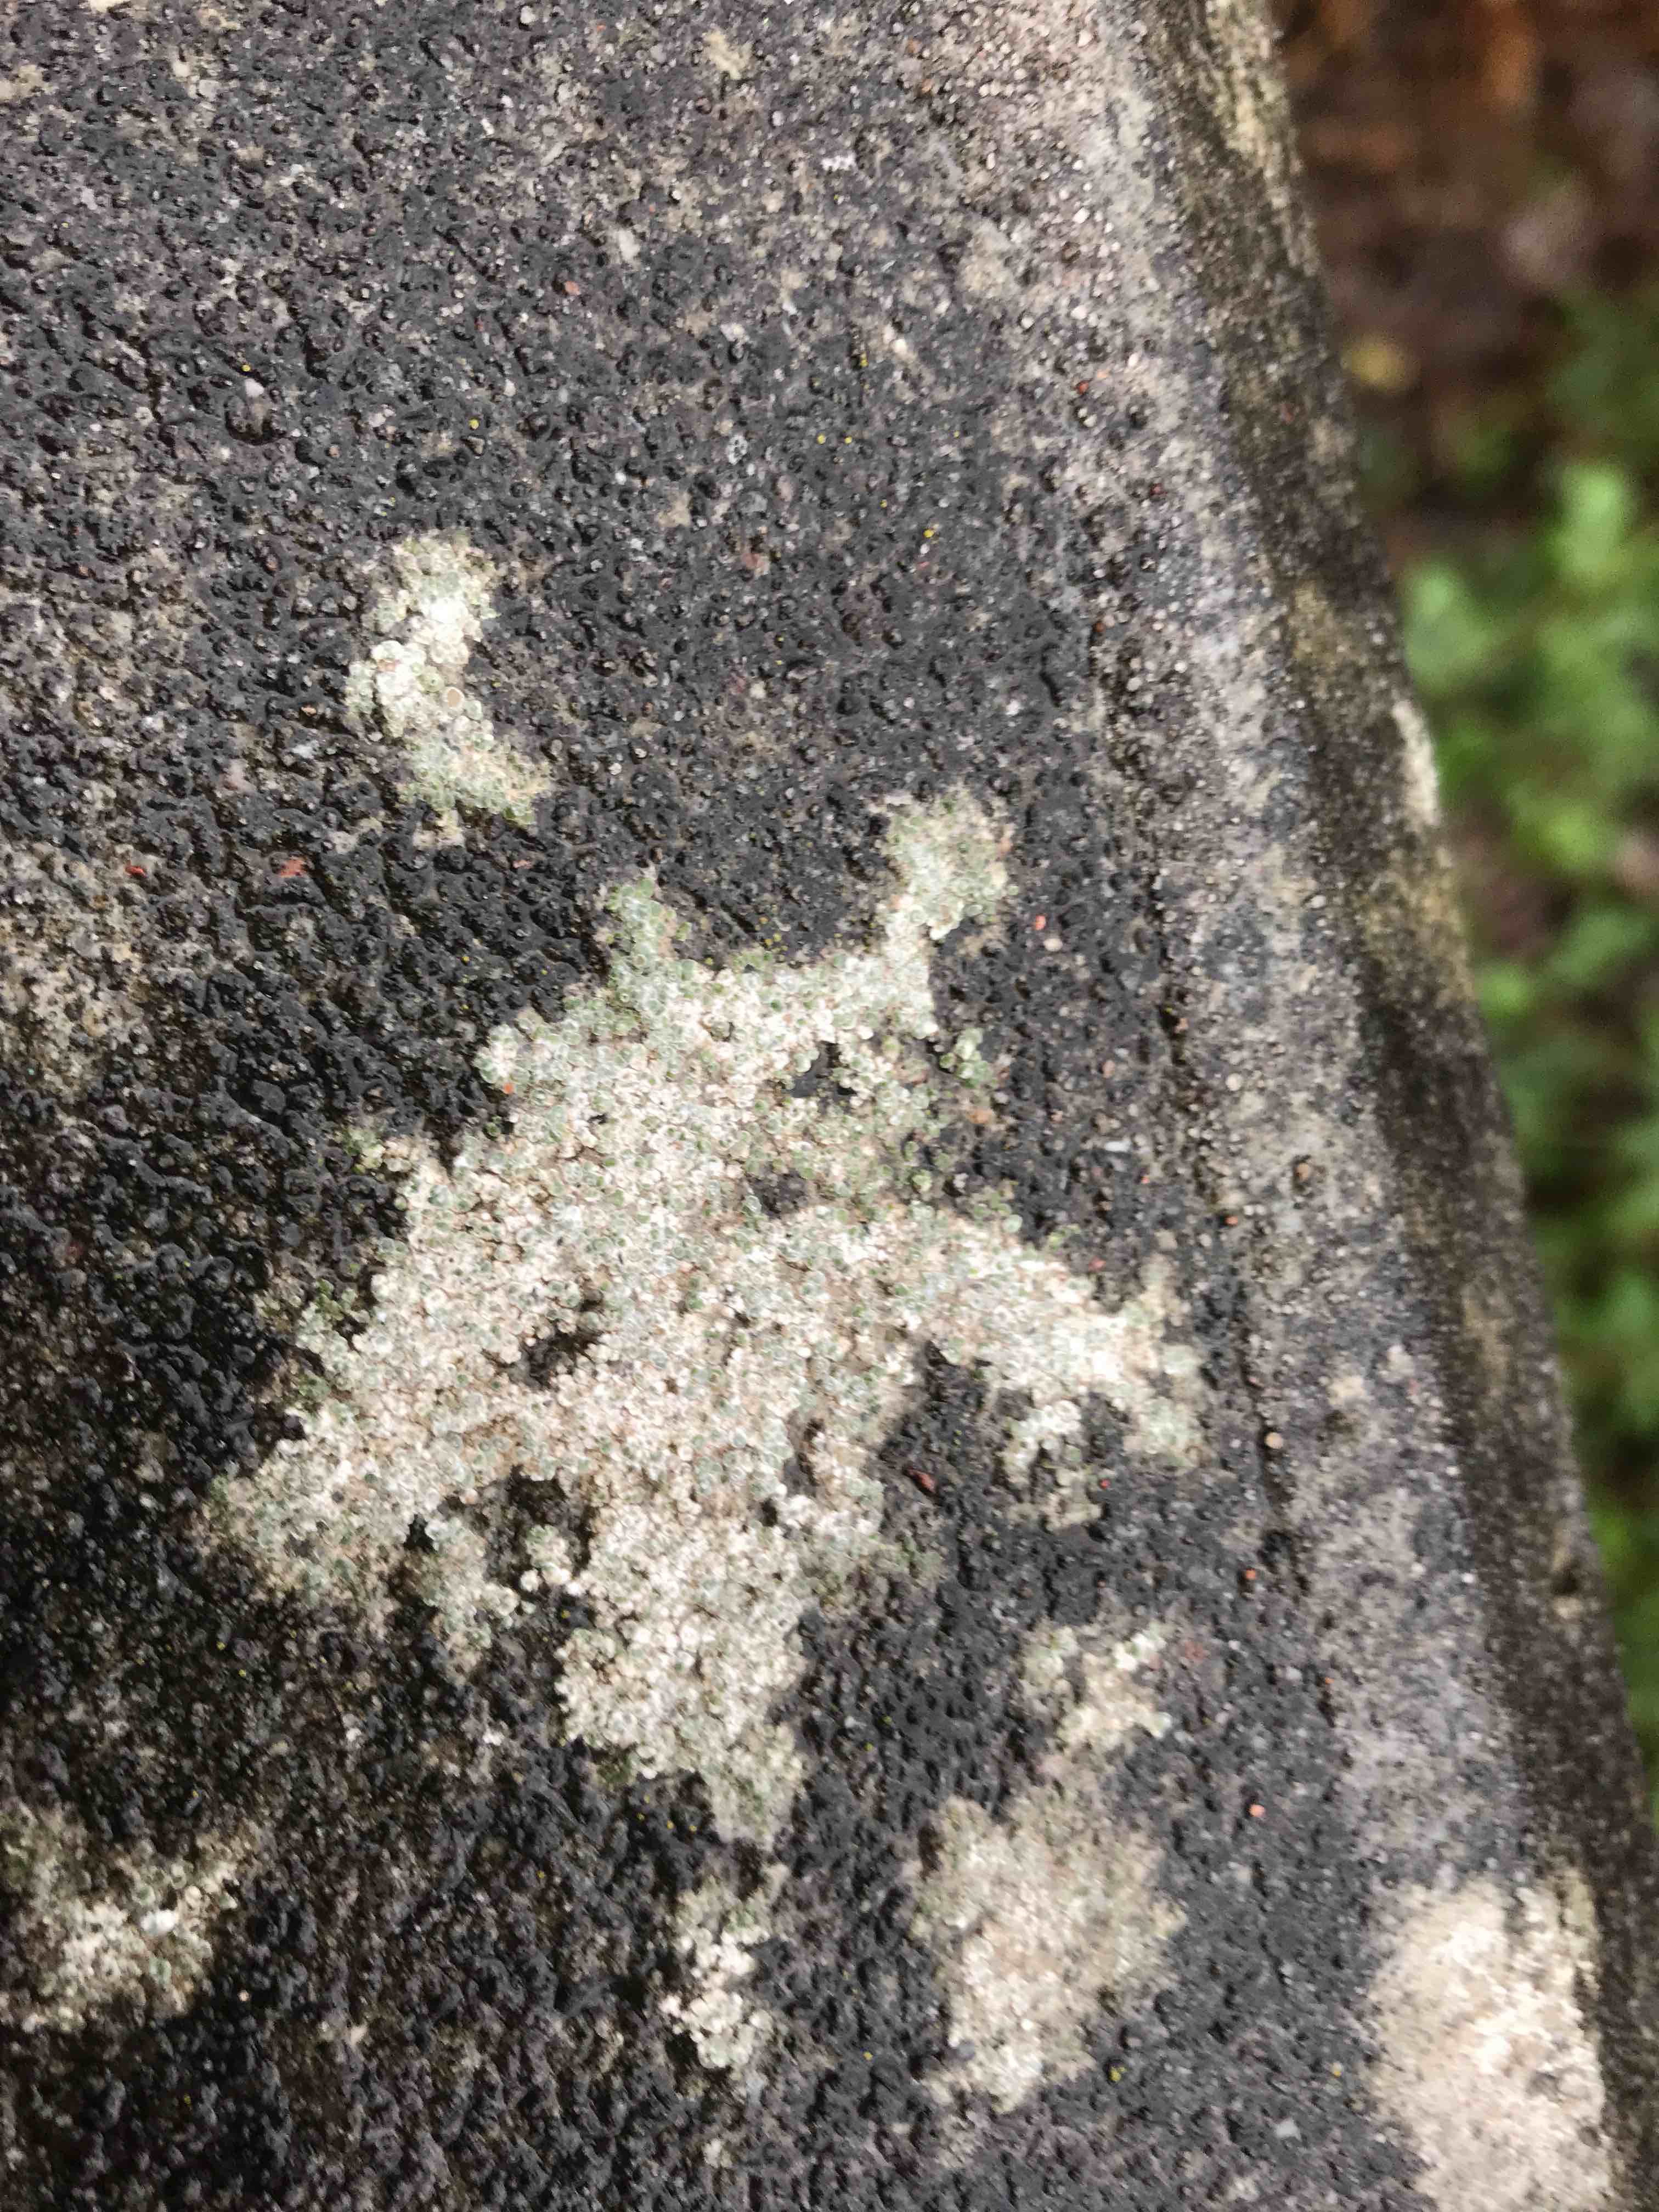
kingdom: Fungi
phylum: Ascomycota
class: Lecanoromycetes
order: Pertusariales
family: Megasporaceae
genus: Circinaria
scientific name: Circinaria contorta
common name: indviklet hulskivelav
